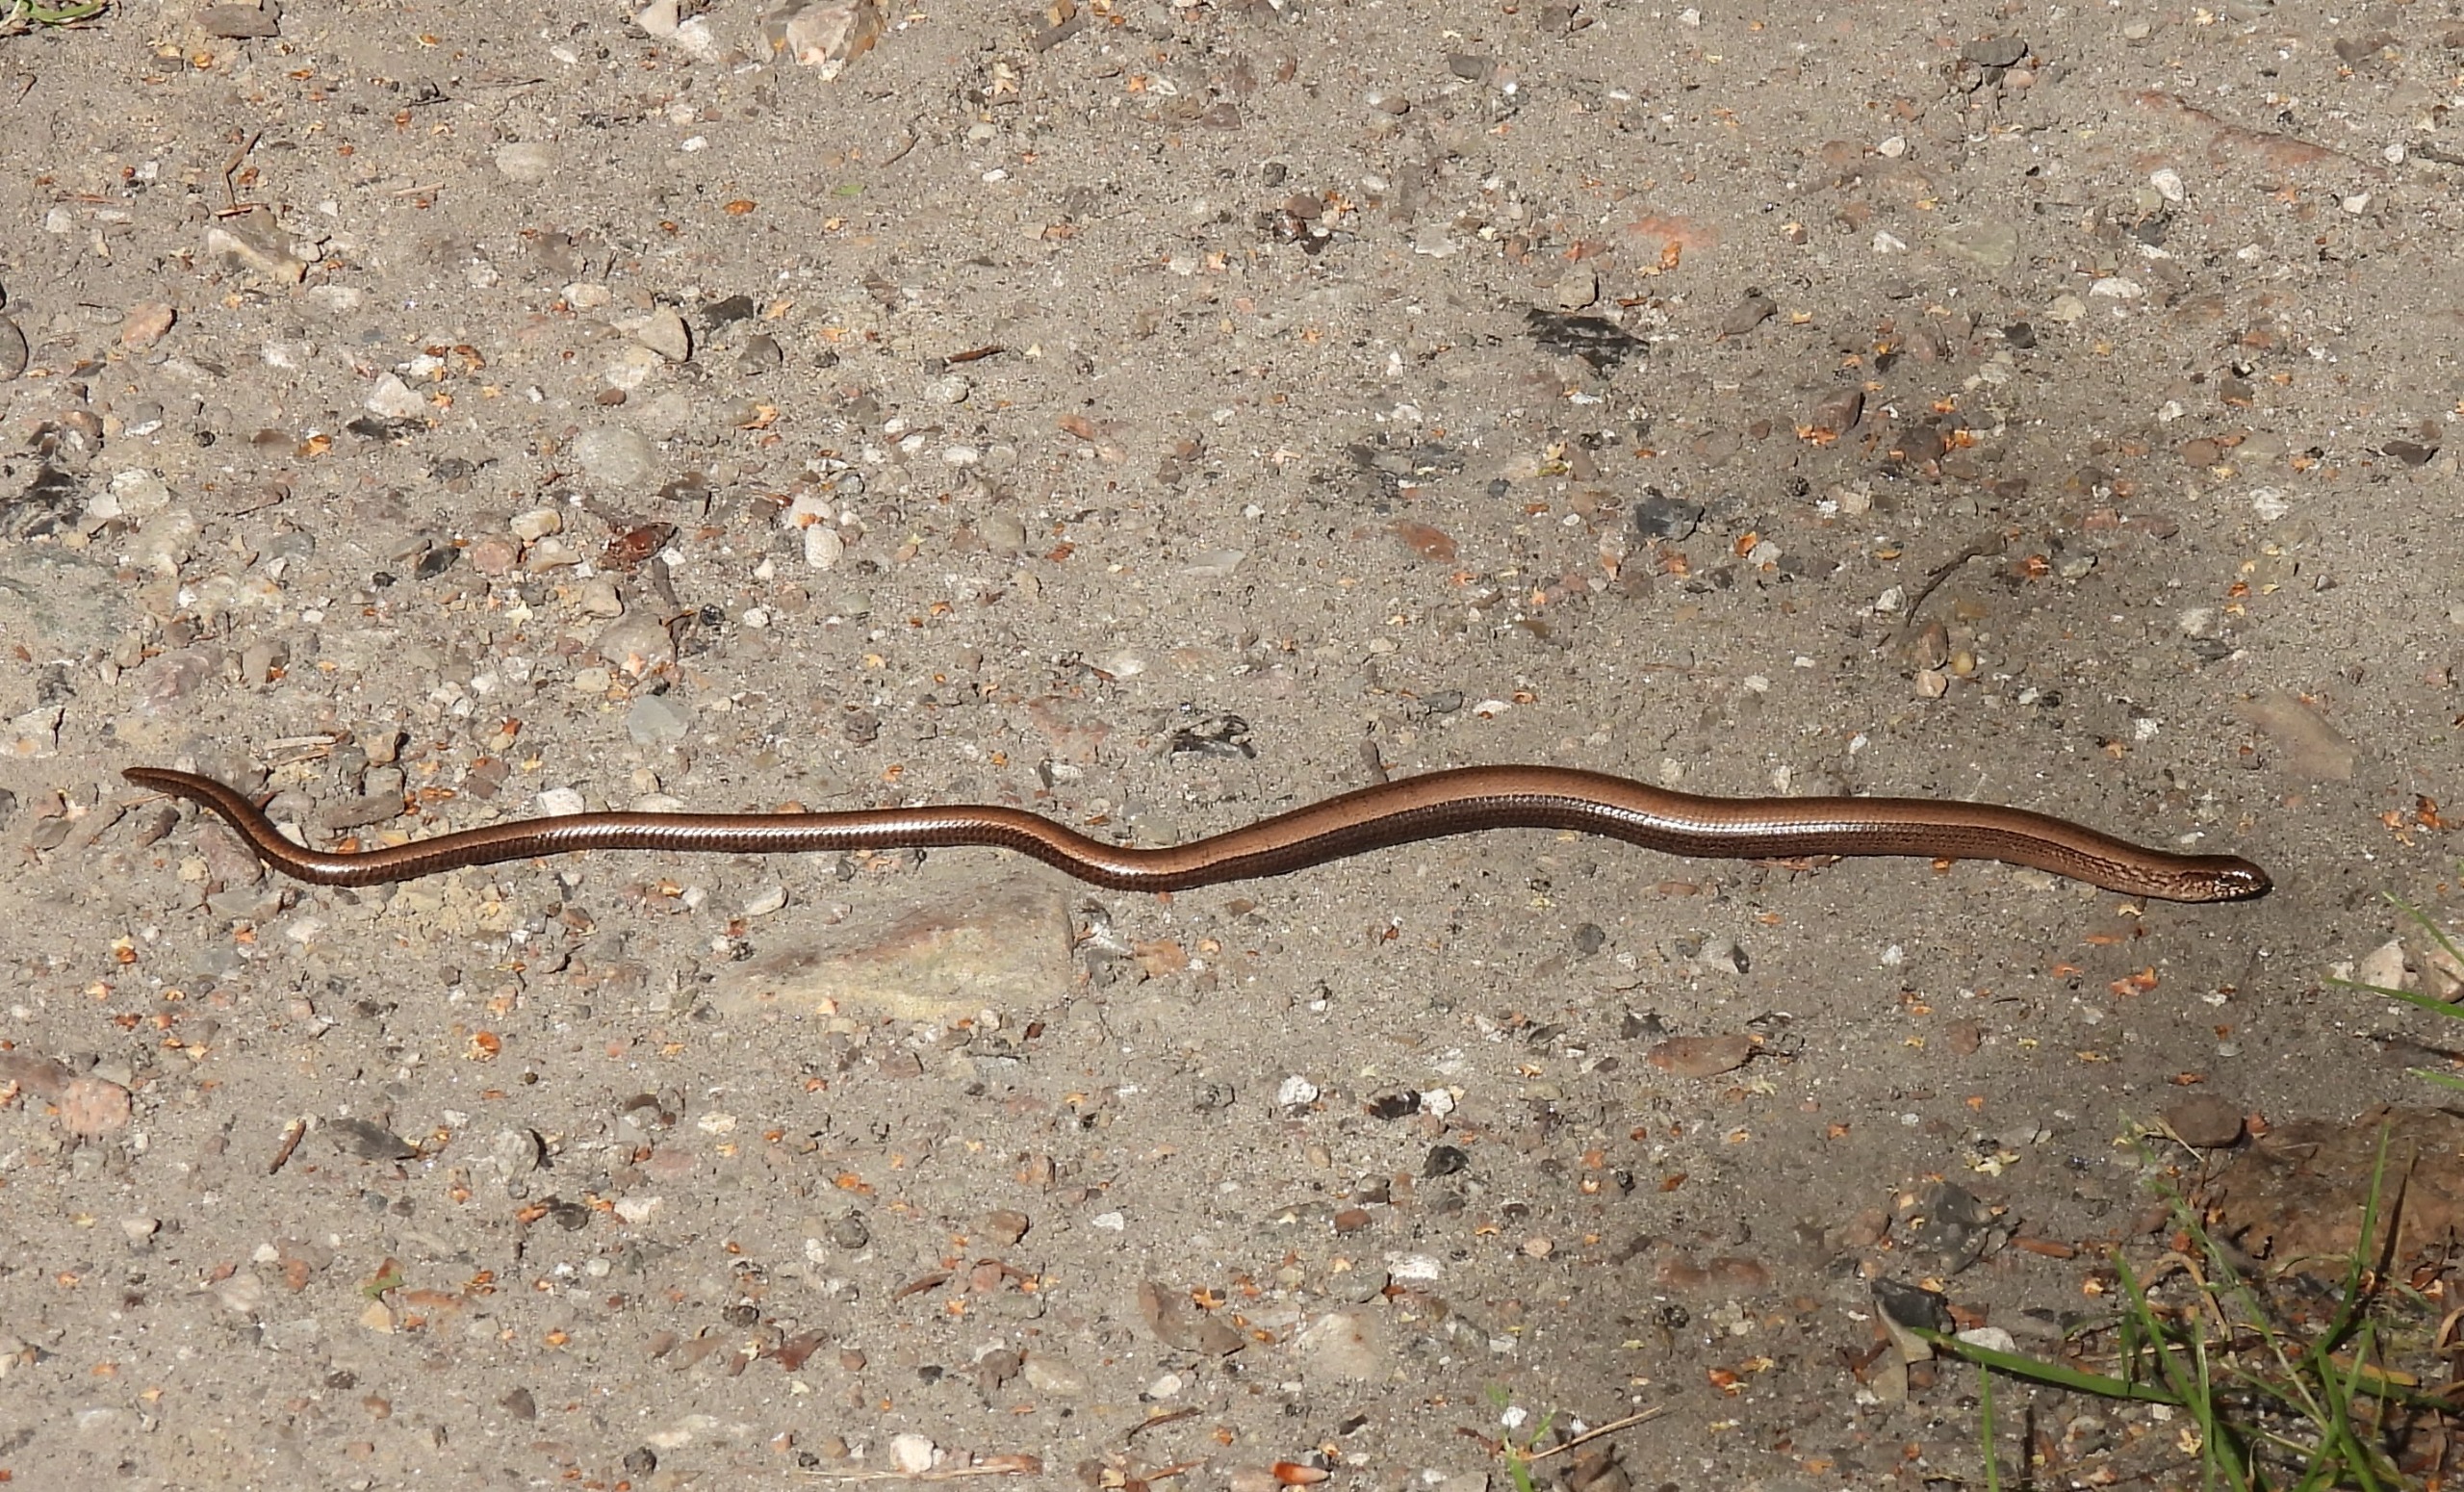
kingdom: Animalia
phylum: Chordata
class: Squamata
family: Anguidae
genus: Anguis
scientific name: Anguis fragilis
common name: Stålorm
